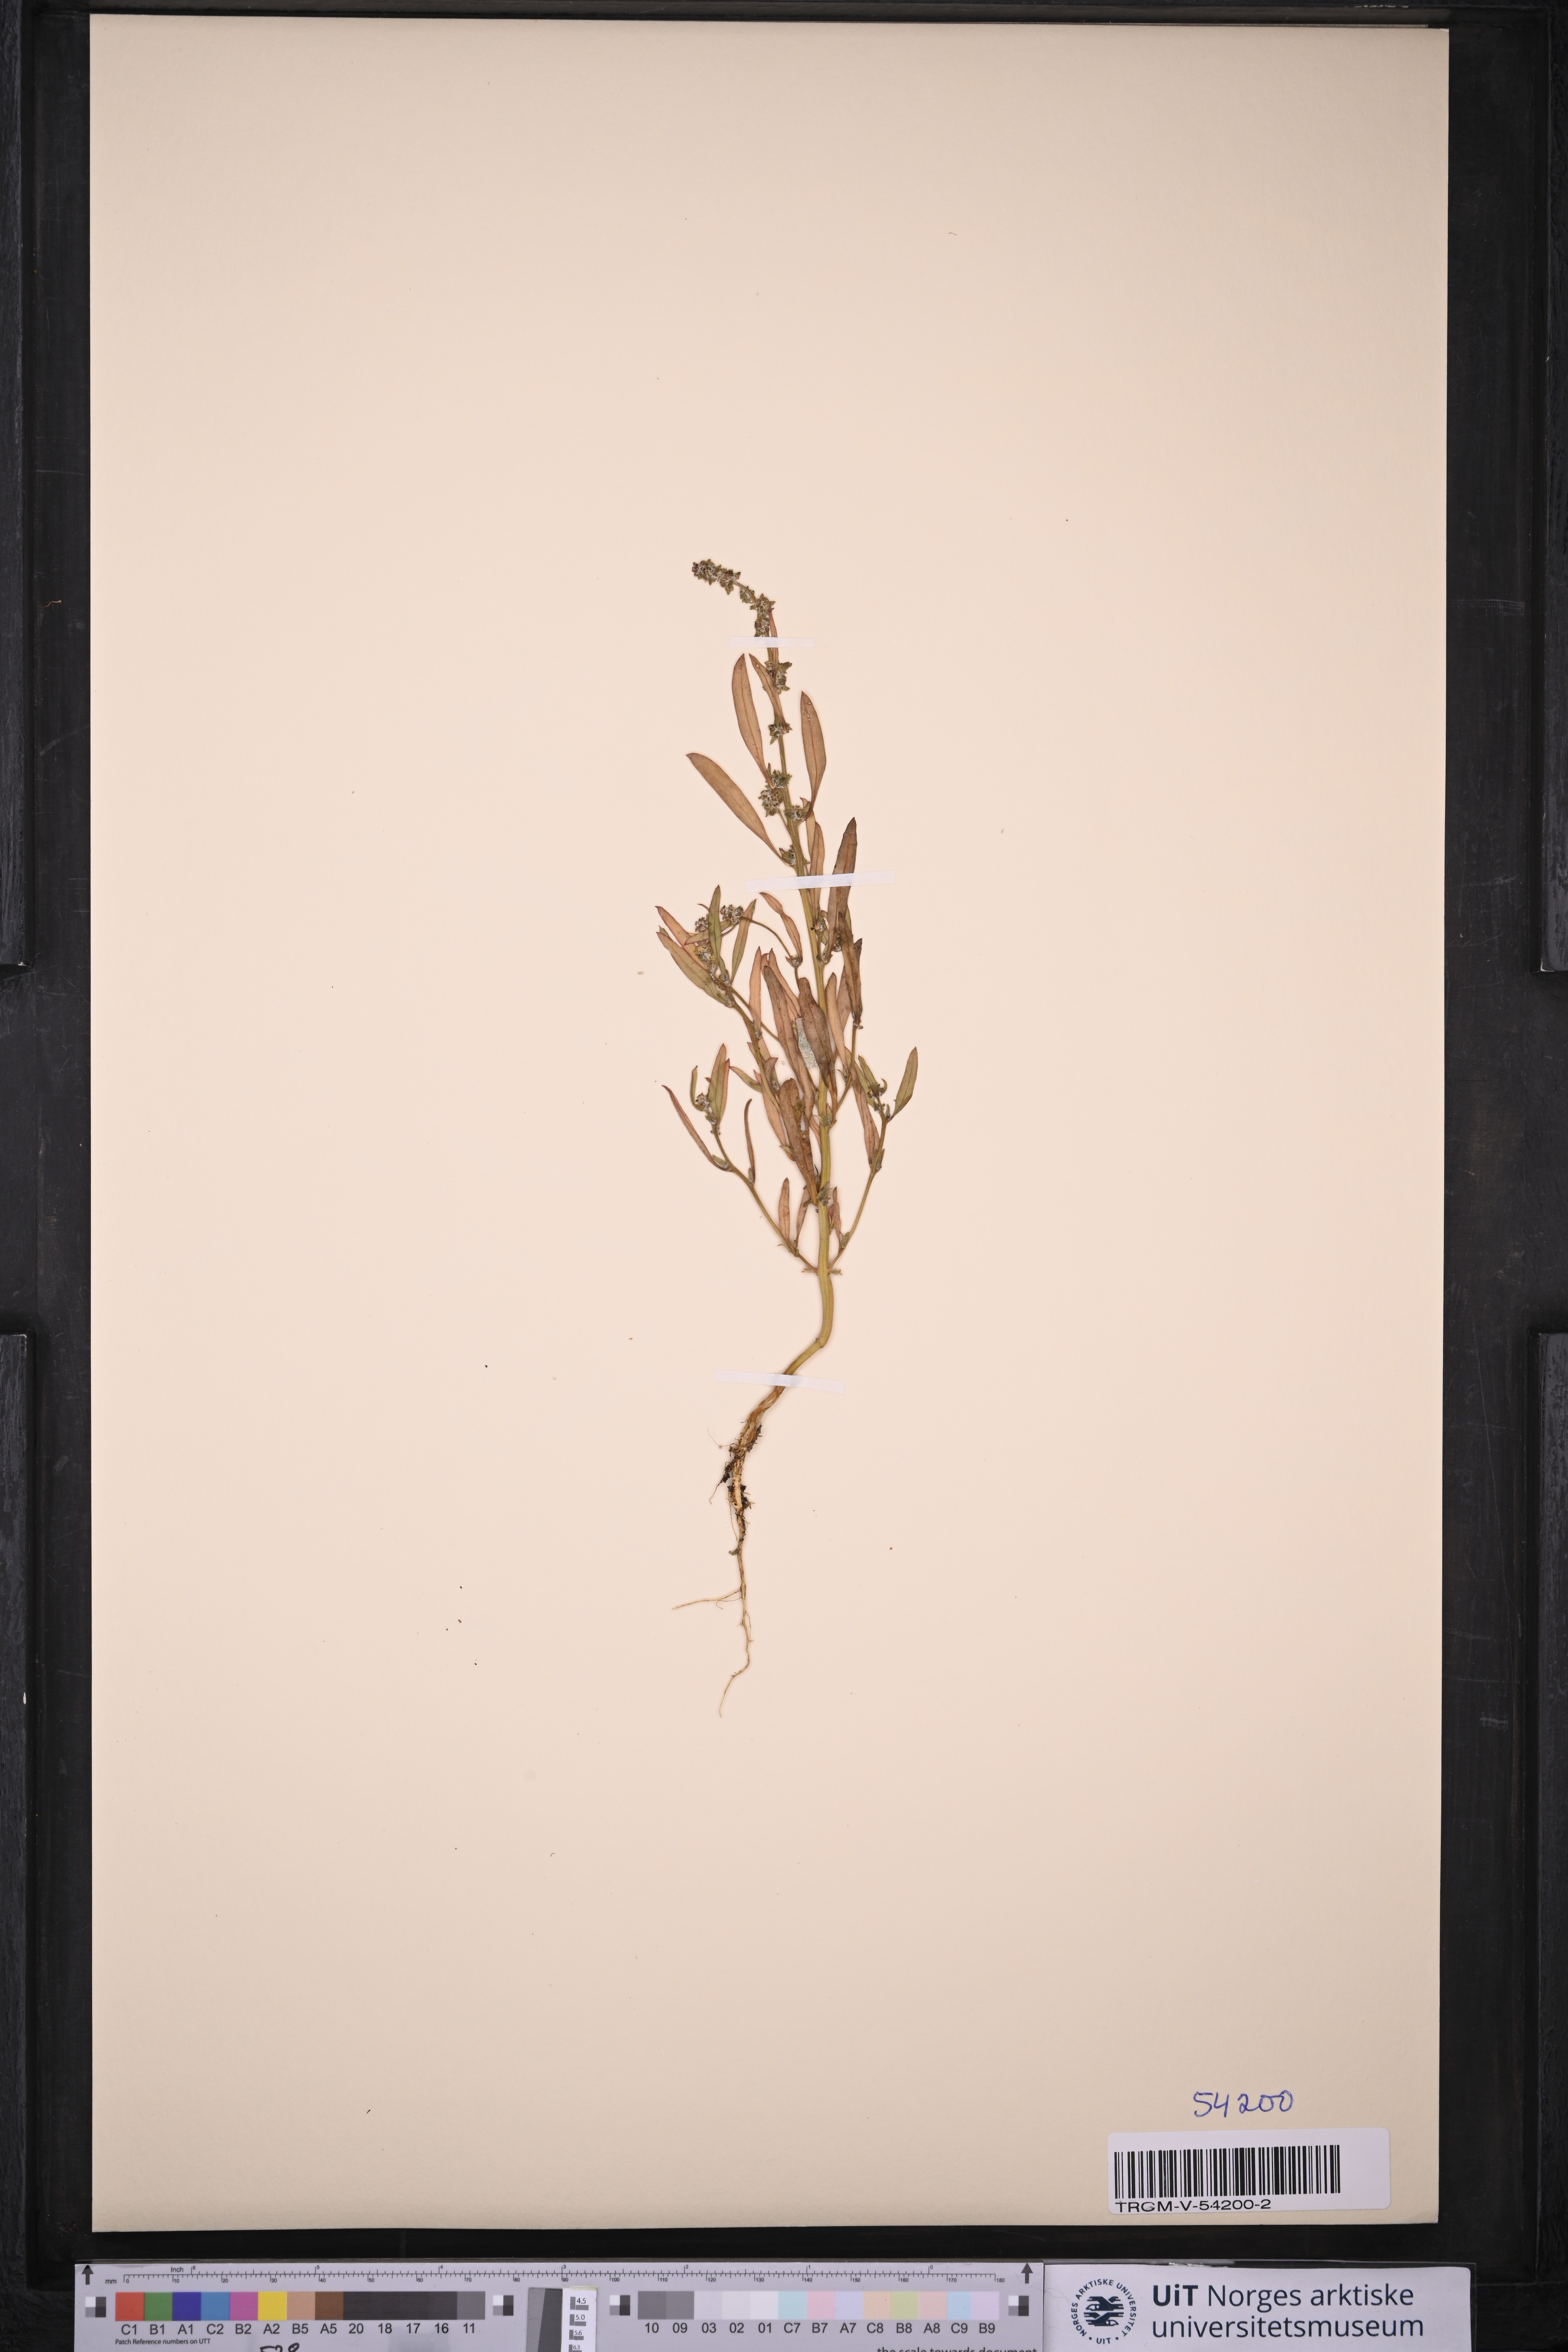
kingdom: Plantae
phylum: Tracheophyta
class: Magnoliopsida
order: Caryophyllales
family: Amaranthaceae
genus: Atriplex
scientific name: Atriplex littoralis
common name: Grass-leaved orache
